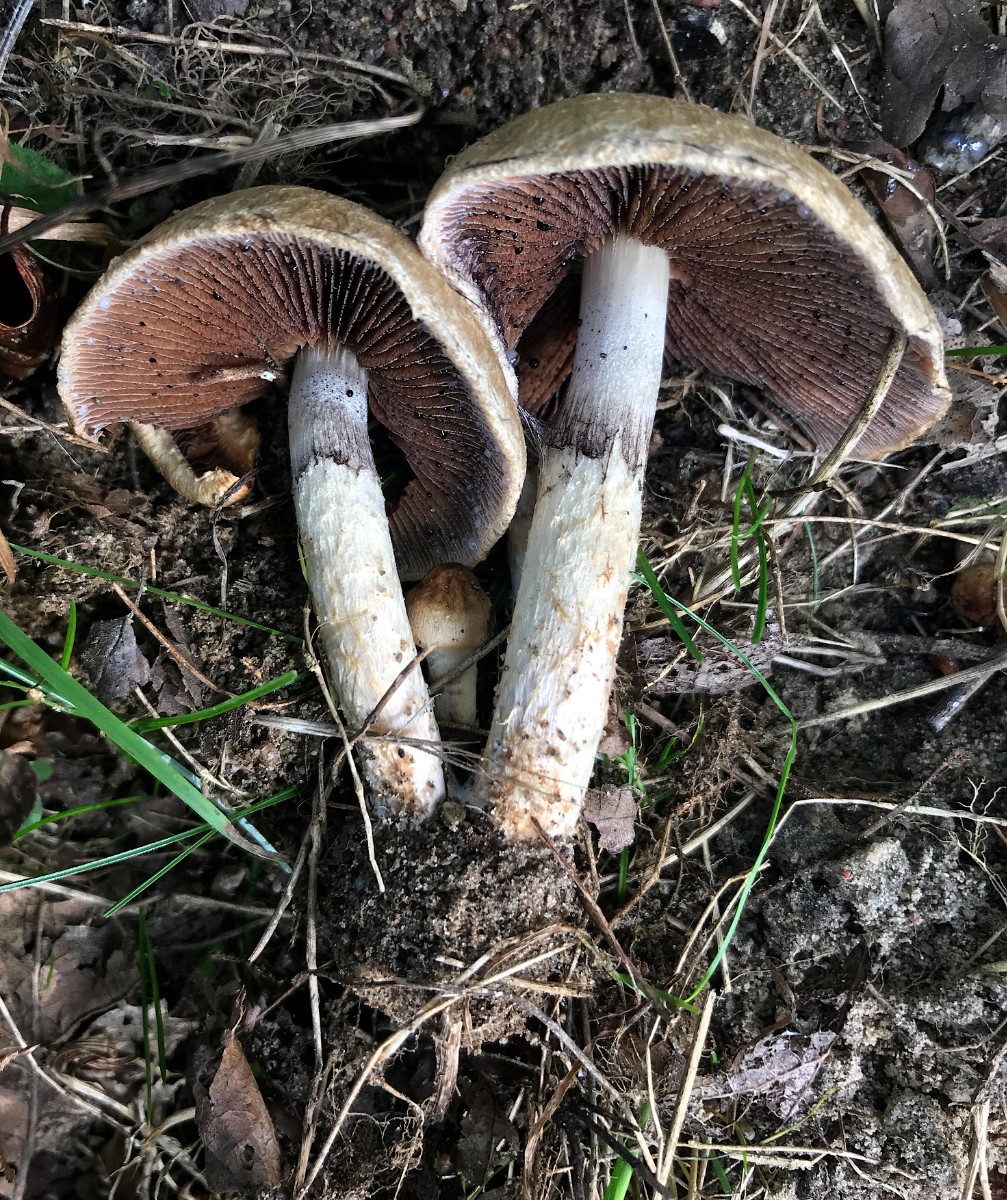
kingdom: Fungi
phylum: Basidiomycota
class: Agaricomycetes
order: Agaricales
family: Psathyrellaceae
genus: Lacrymaria
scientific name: Lacrymaria lacrymabunda
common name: grædende mørkhat
